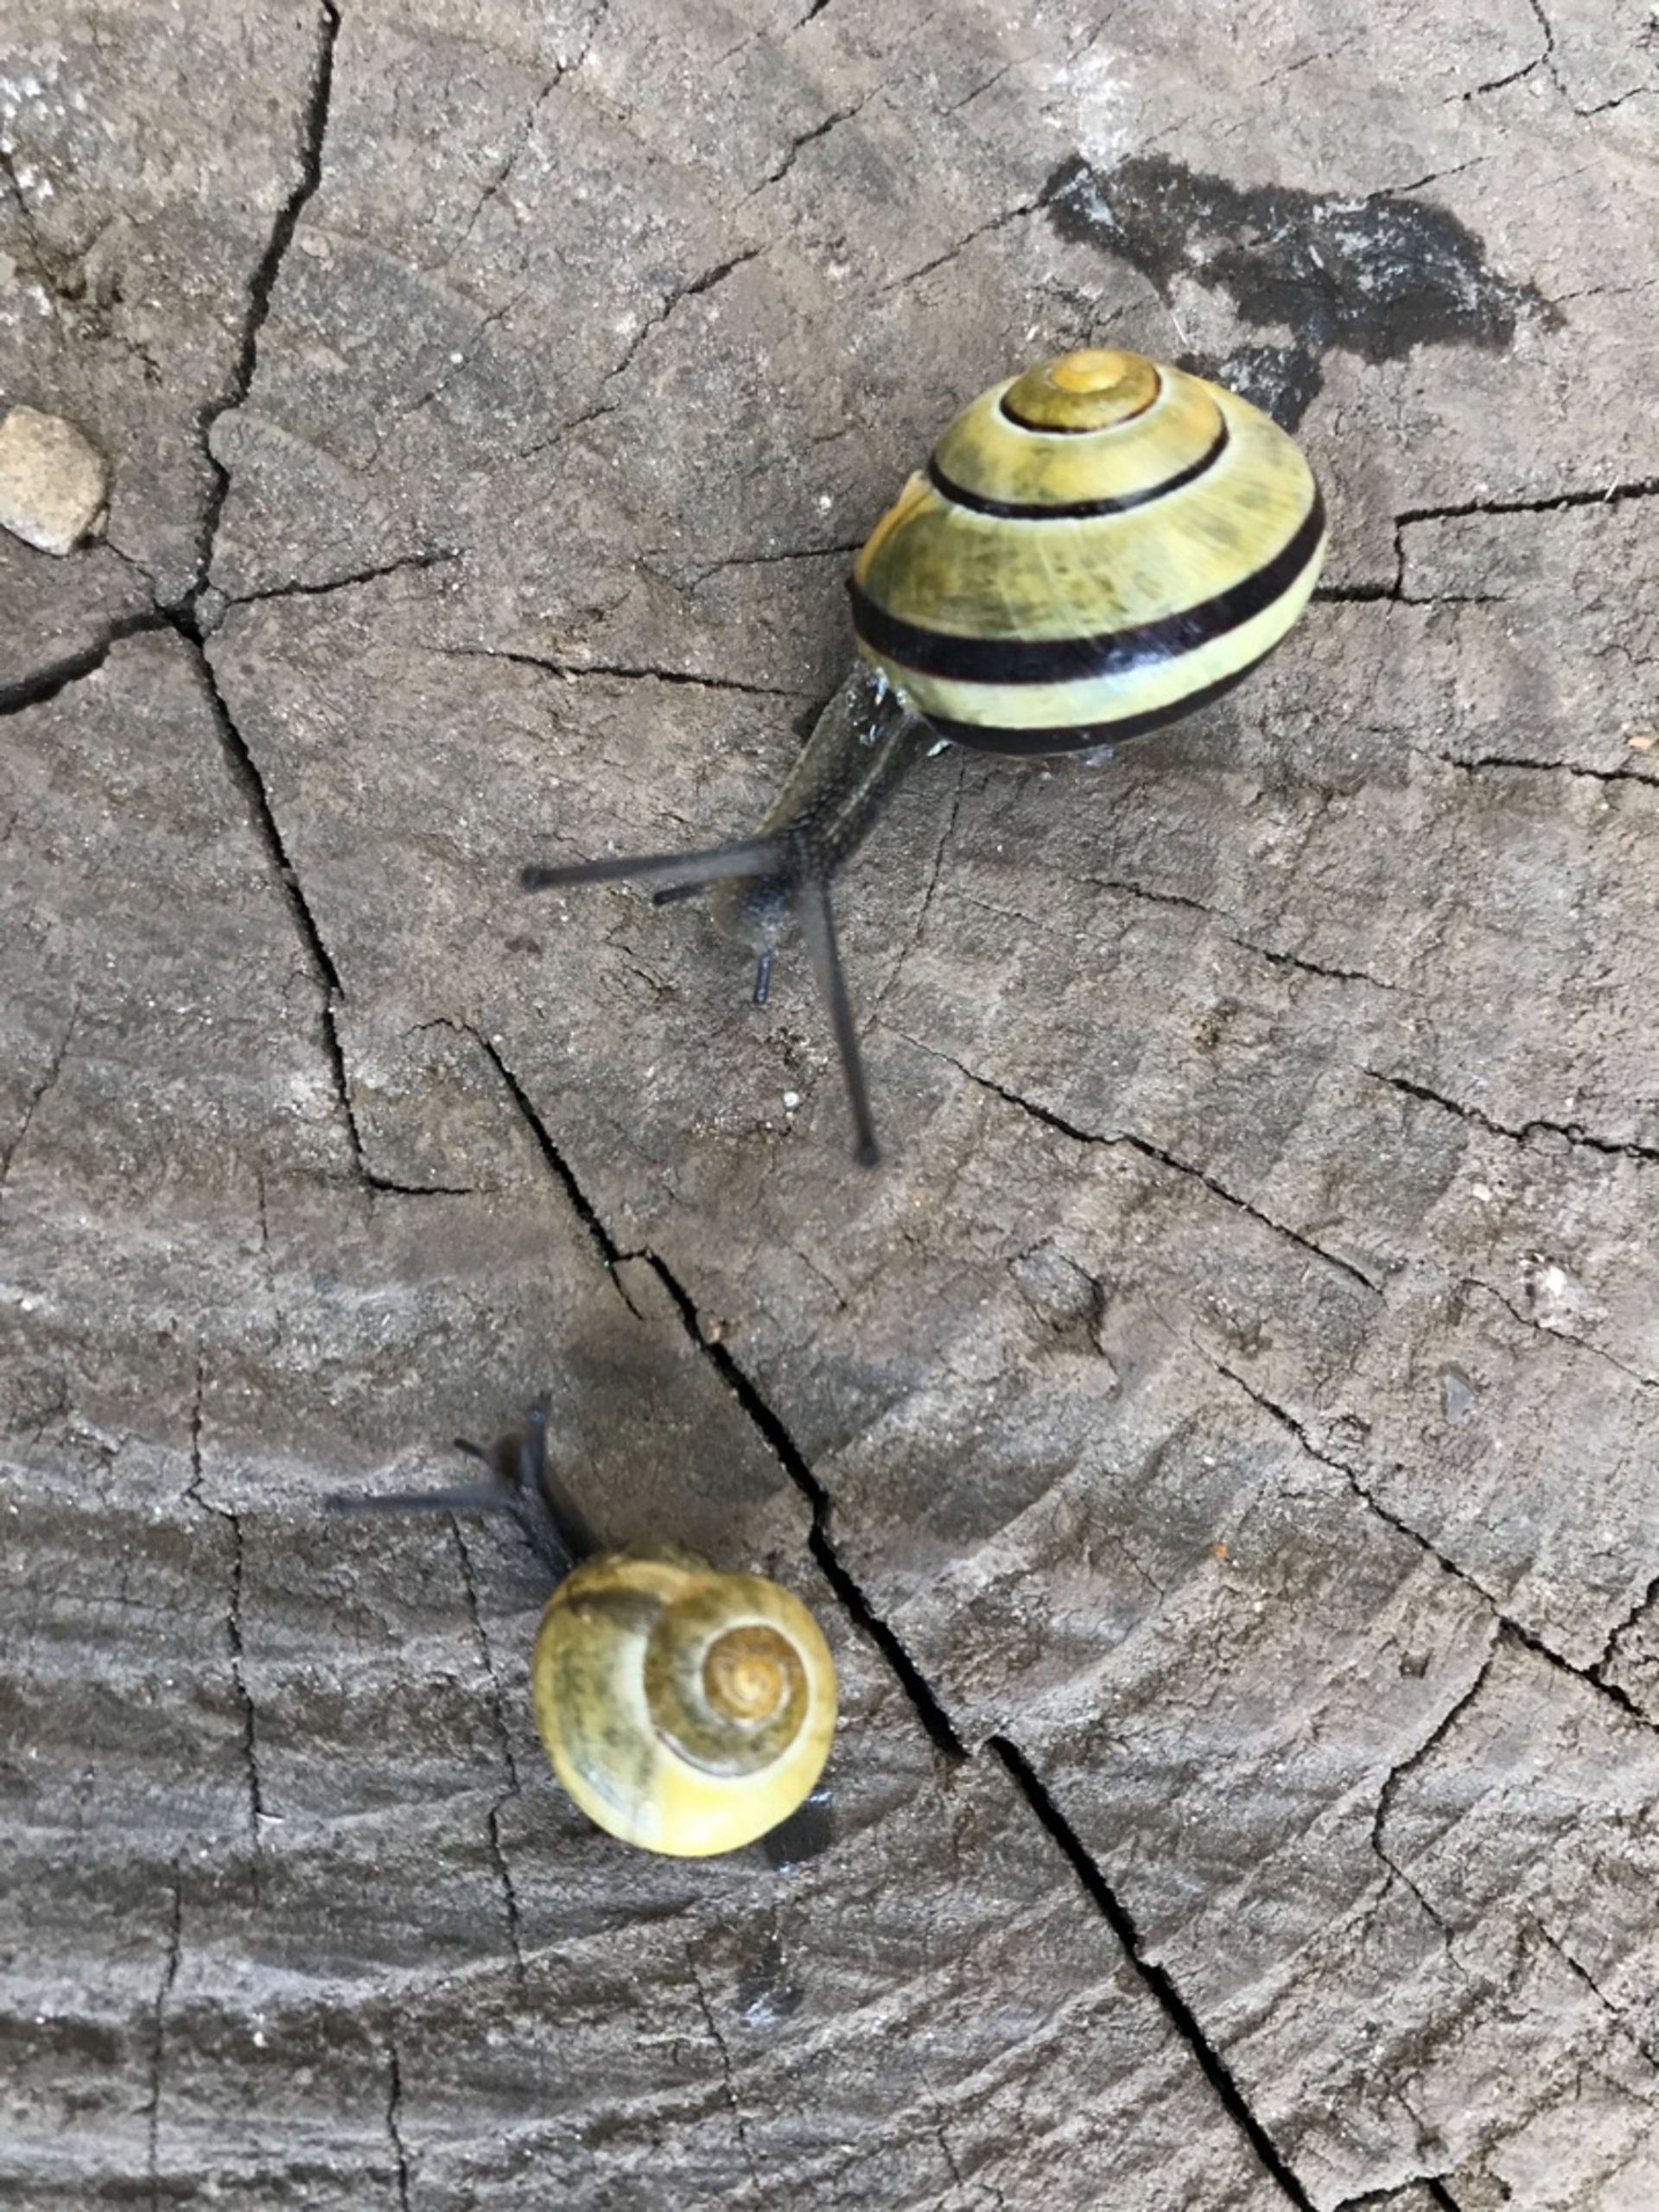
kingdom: Animalia
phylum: Mollusca
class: Gastropoda
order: Stylommatophora
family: Helicidae
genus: Cepaea
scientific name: Cepaea hortensis
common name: Havesnegl
